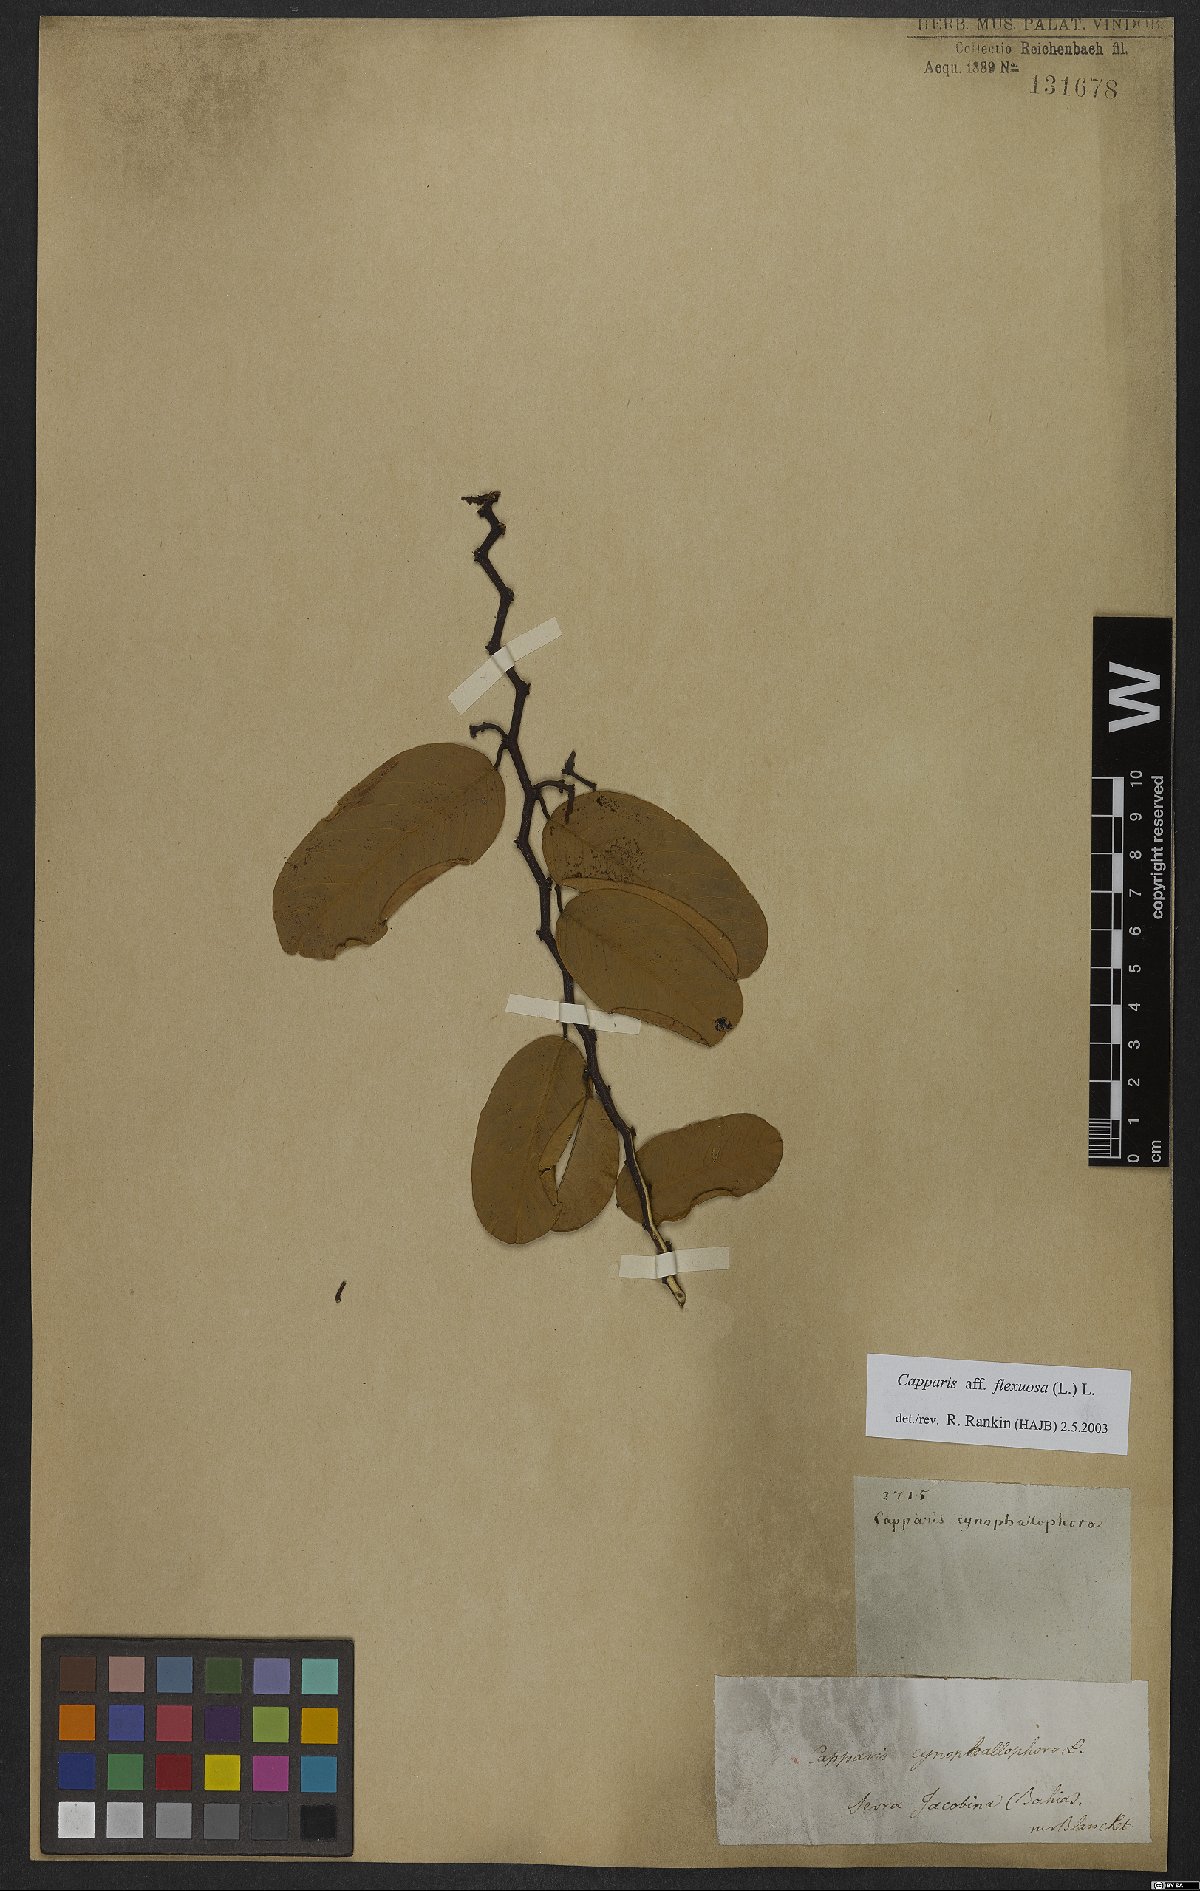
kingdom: Plantae
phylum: Tracheophyta
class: Magnoliopsida
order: Brassicales
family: Capparaceae
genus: Cynophalla
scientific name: Cynophalla flexuosa
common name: Capertree
